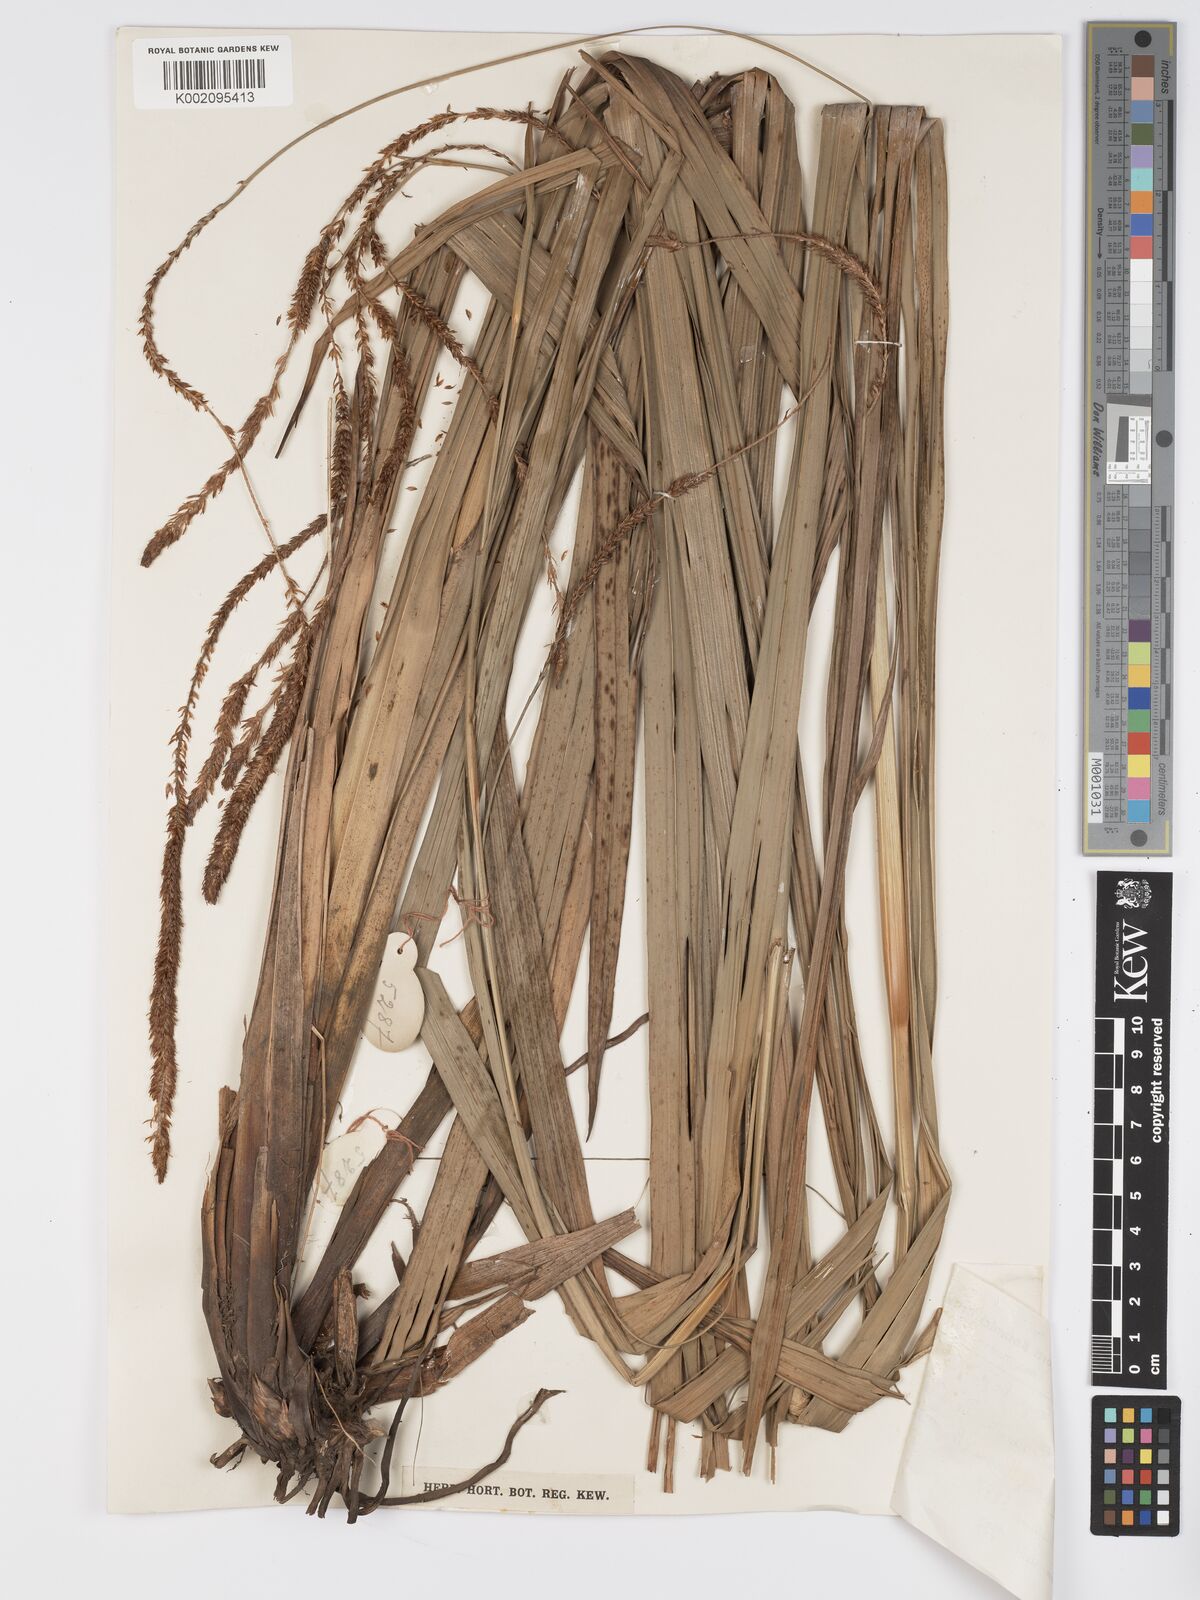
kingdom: Plantae
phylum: Tracheophyta
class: Liliopsida
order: Poales
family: Cyperaceae
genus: Carex
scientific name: Carex petitiana
